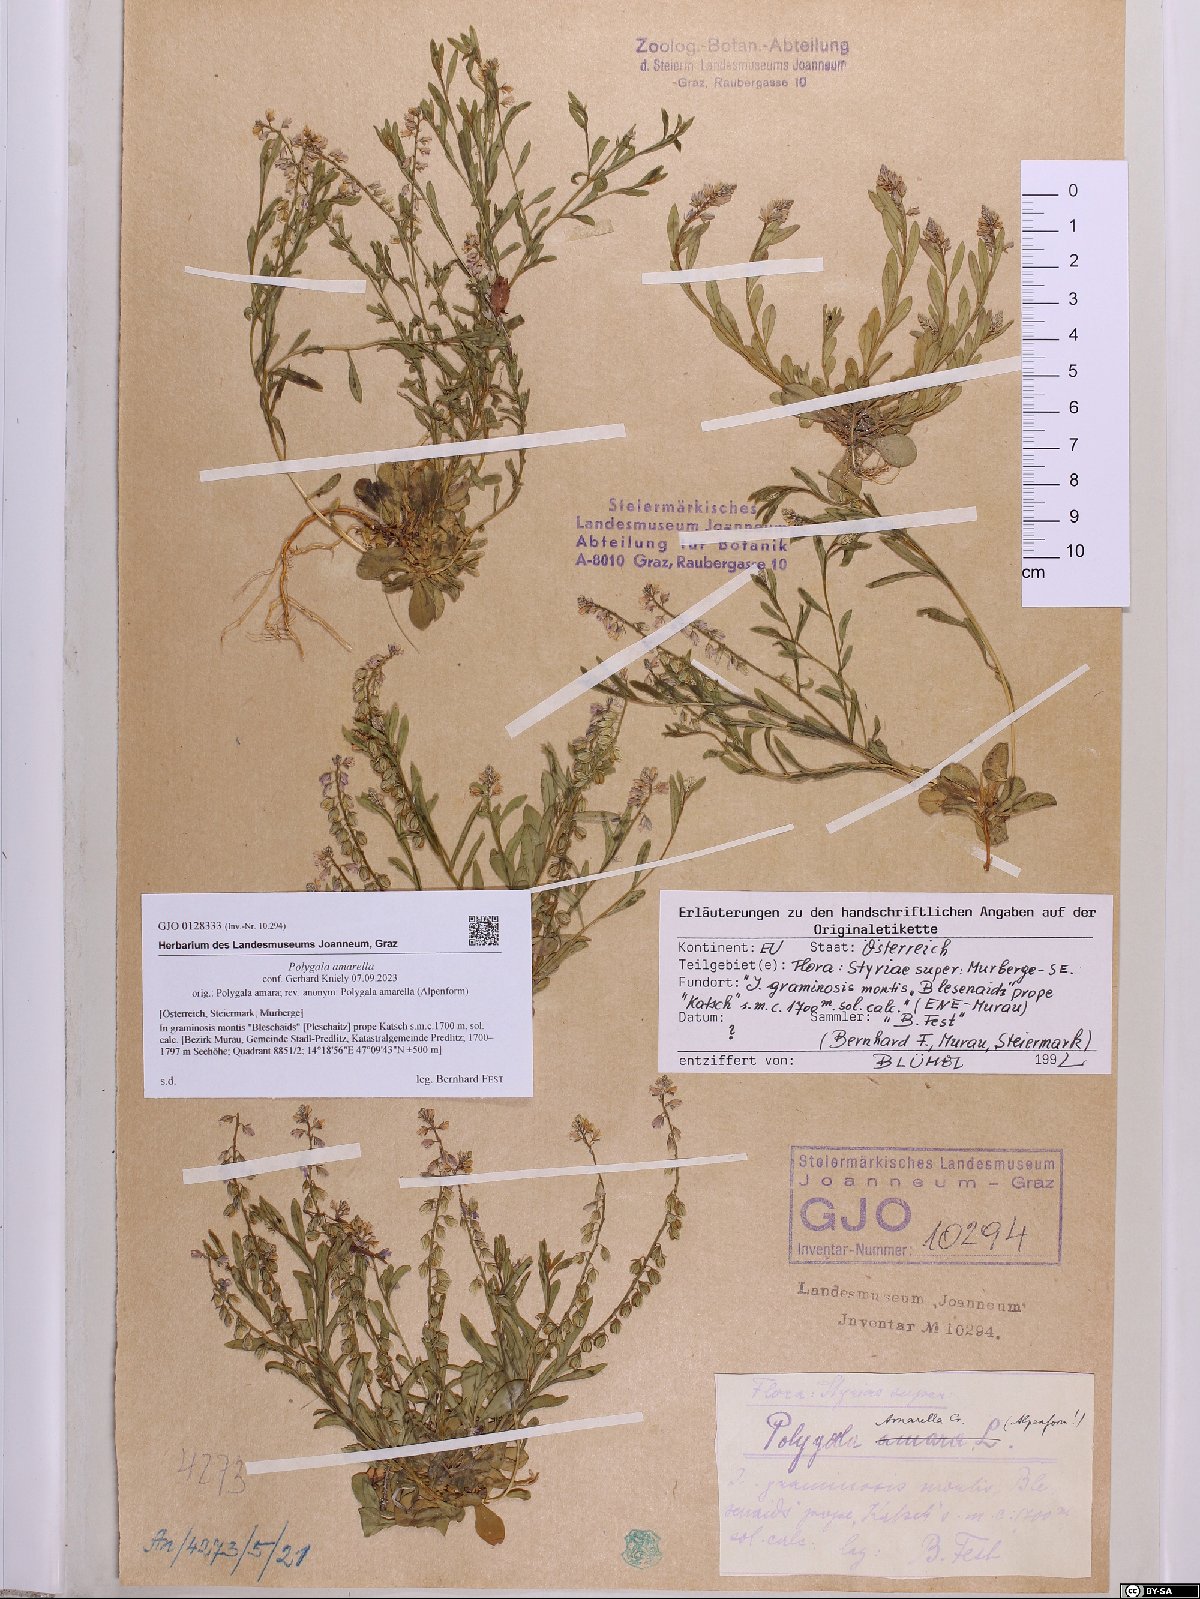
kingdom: Plantae
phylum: Tracheophyta
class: Magnoliopsida
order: Fabales
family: Polygalaceae
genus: Polygala
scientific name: Polygala amarella
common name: Dwarf milkwort
